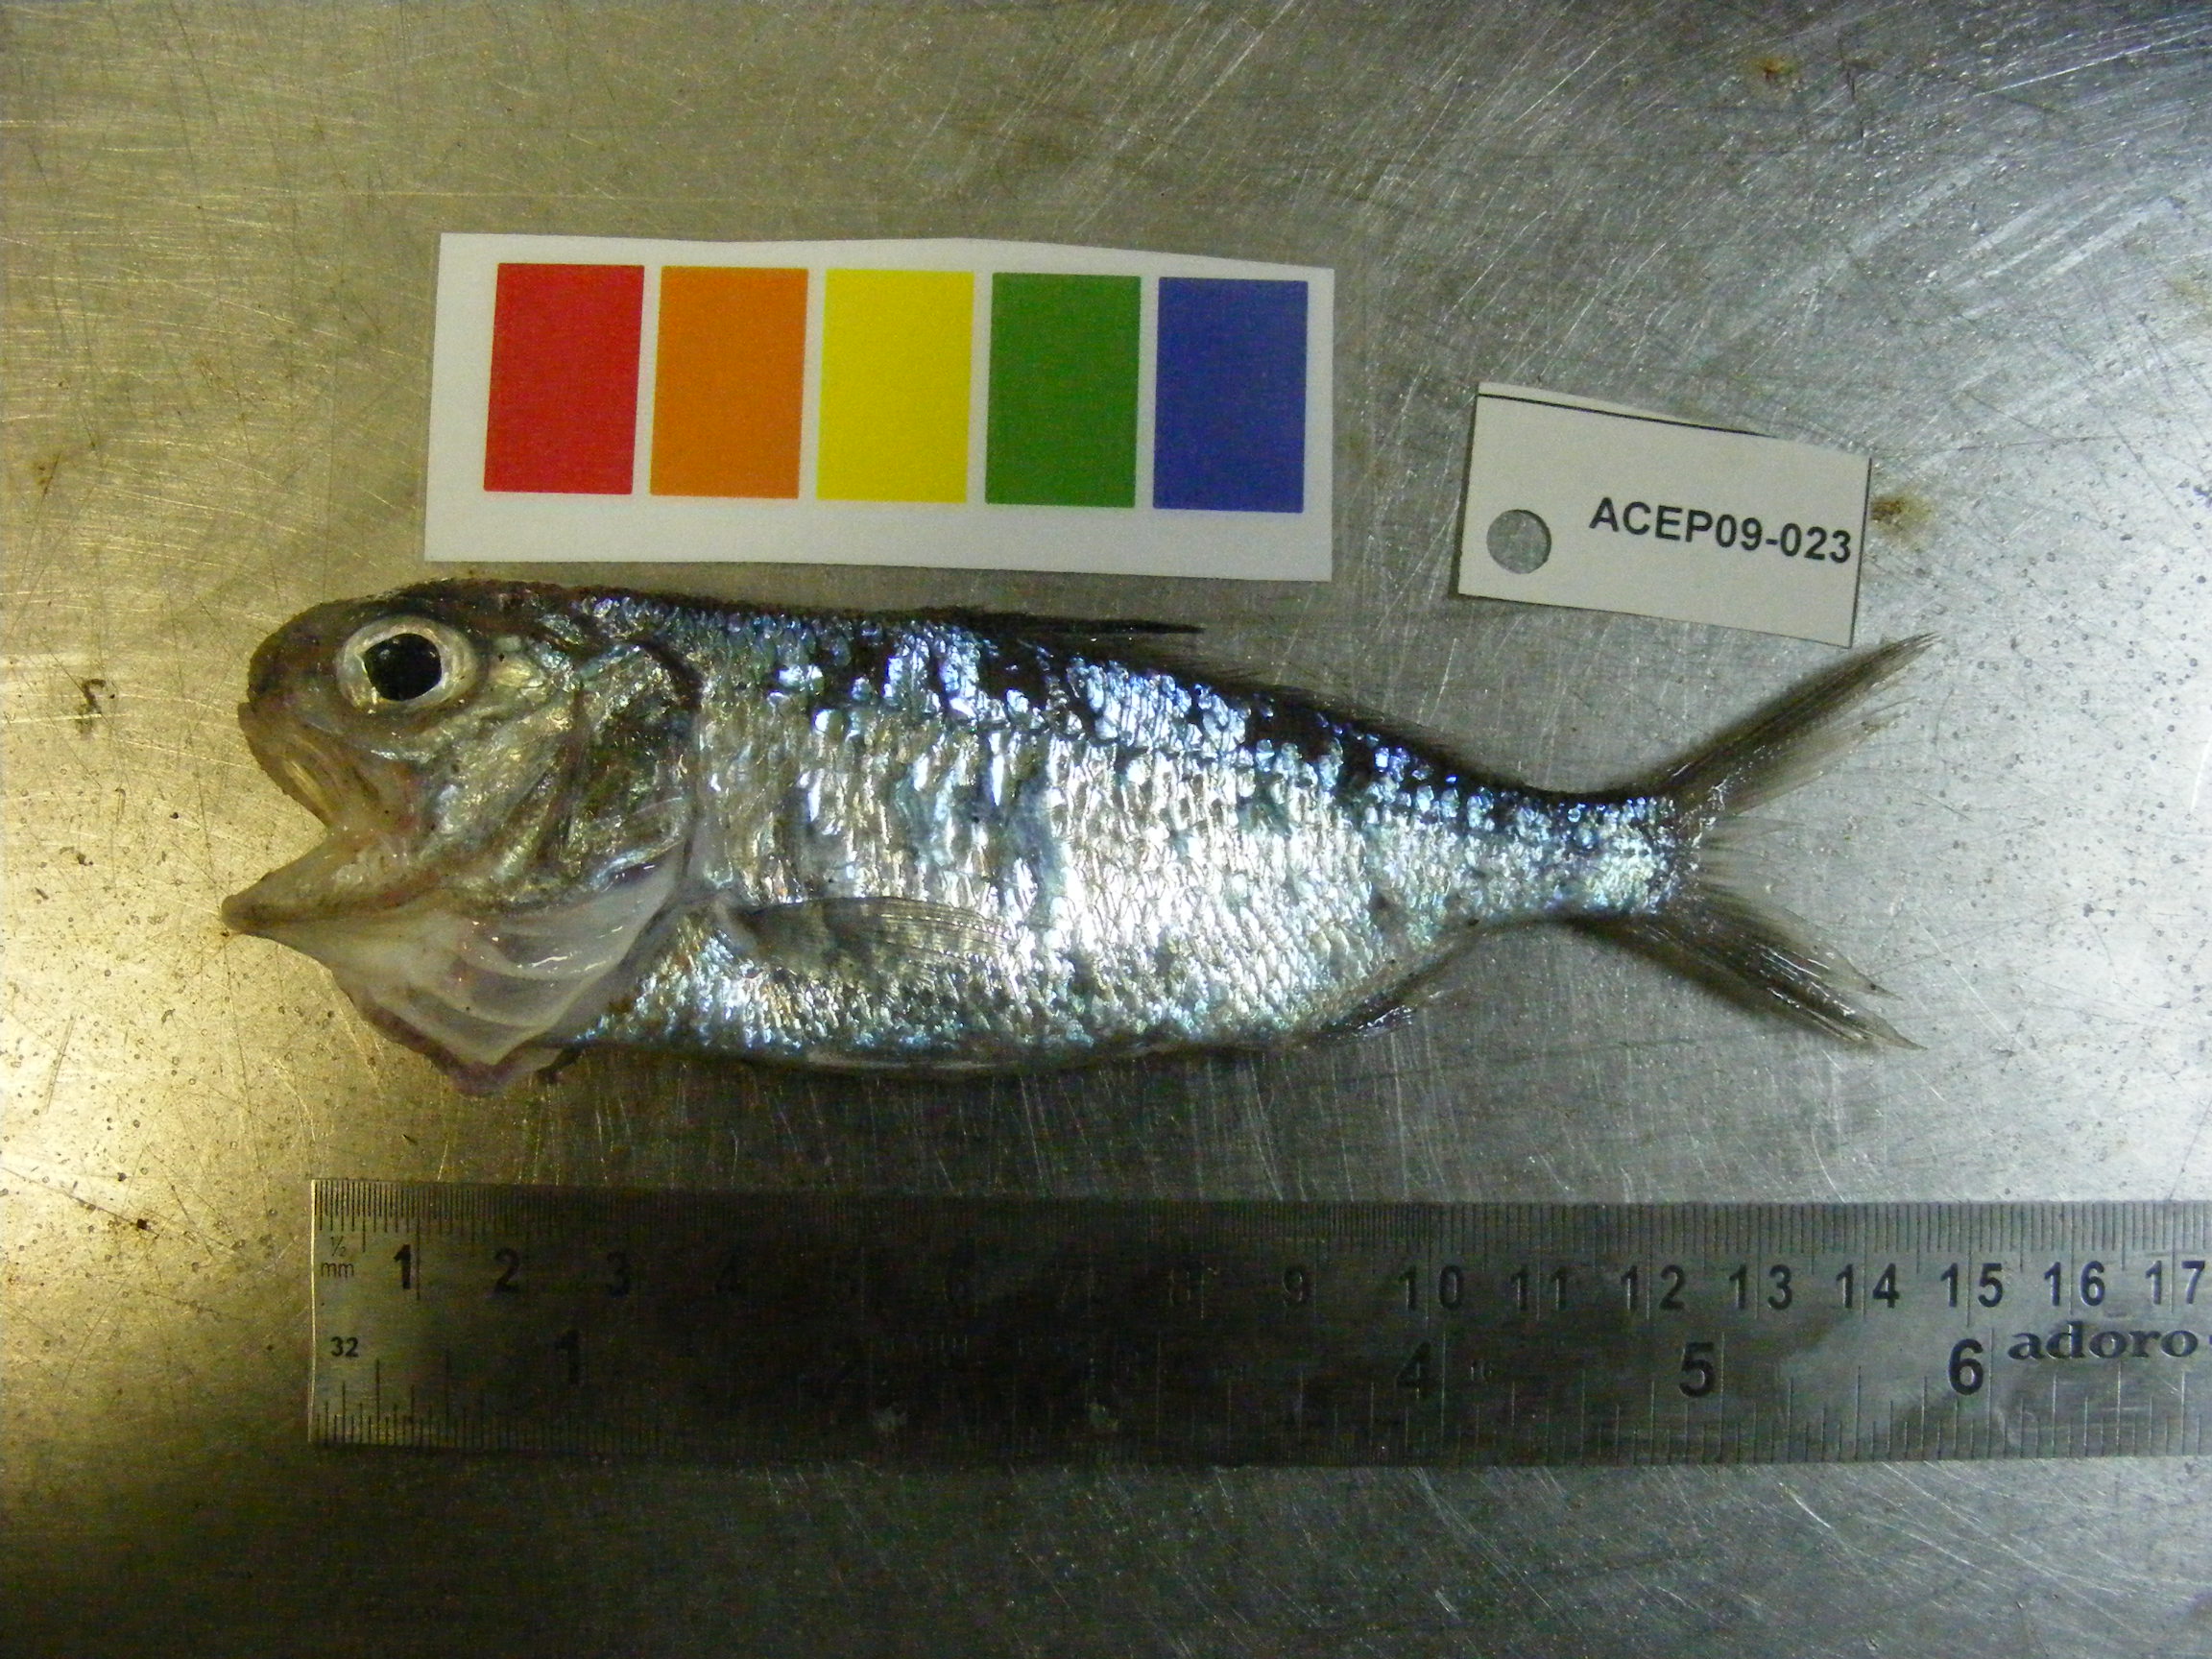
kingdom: Animalia
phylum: Chordata
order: Perciformes
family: Haemulidae
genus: Plectorhinchus
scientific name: Plectorhinchus
